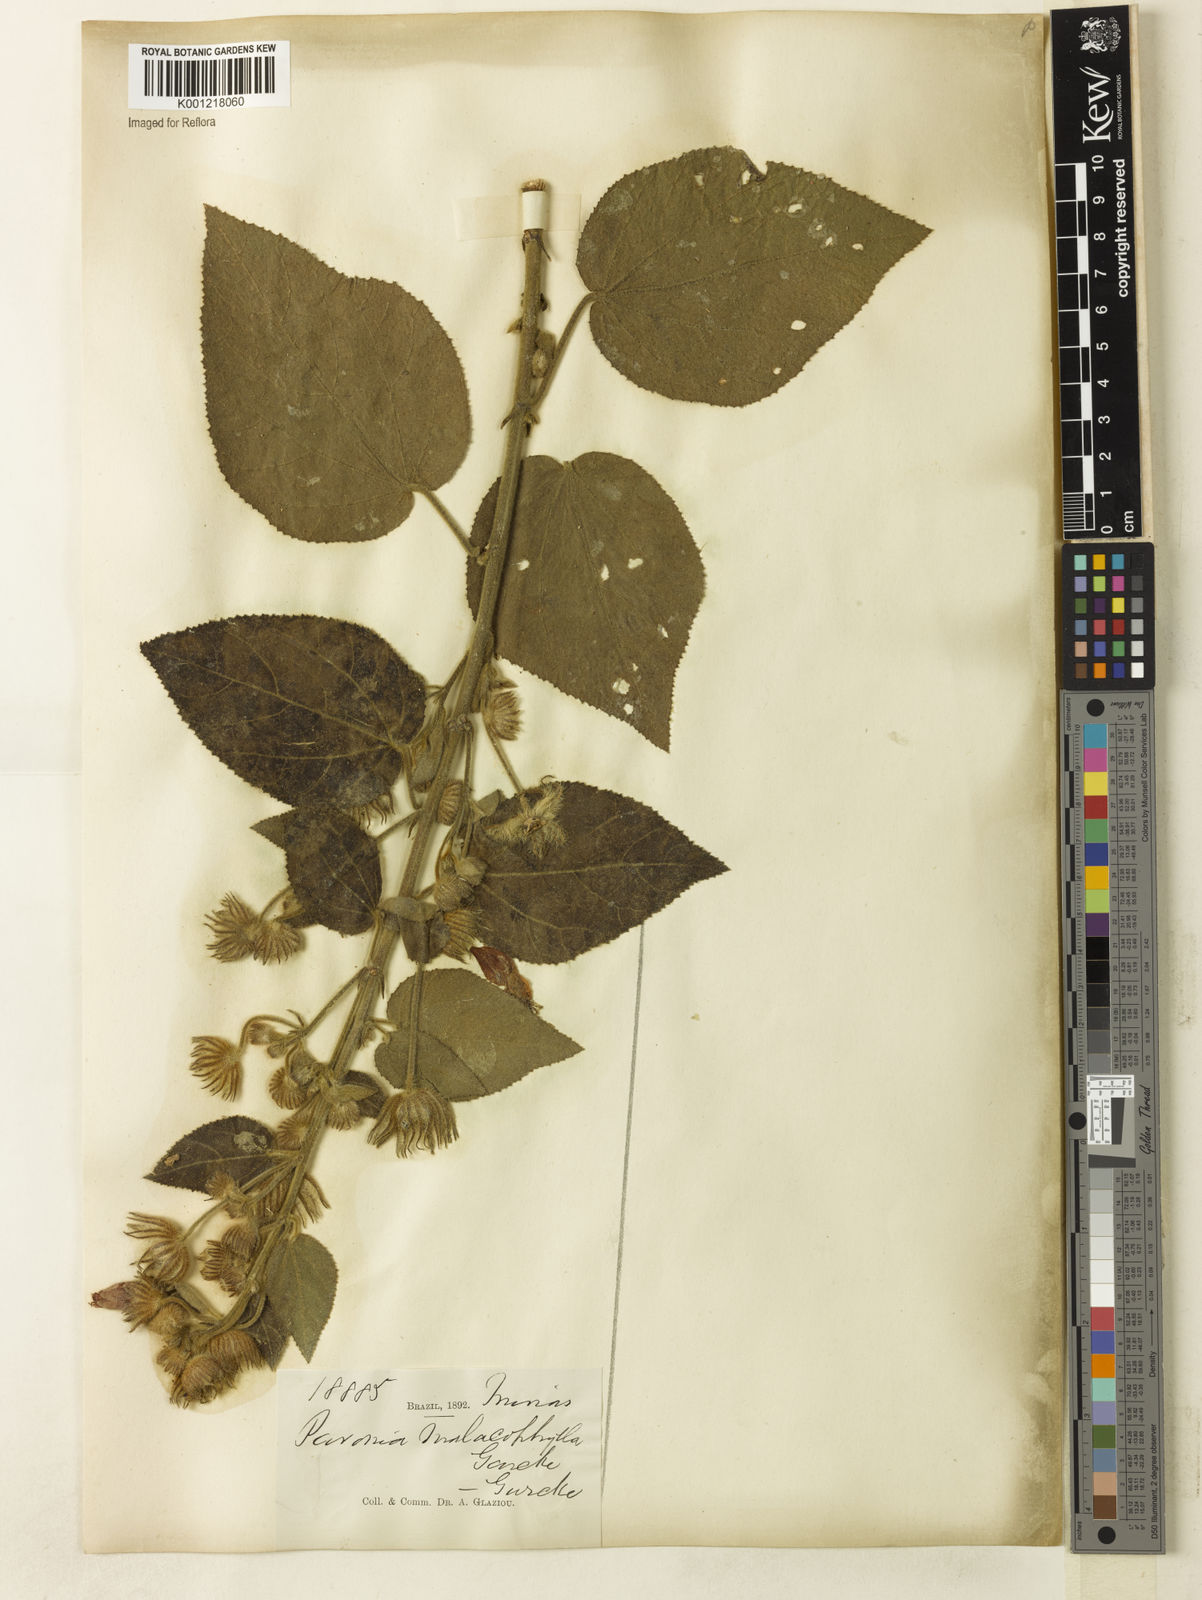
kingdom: Plantae
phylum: Tracheophyta
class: Magnoliopsida
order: Malvales
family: Malvaceae
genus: Pavonia
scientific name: Pavonia malacophylla
